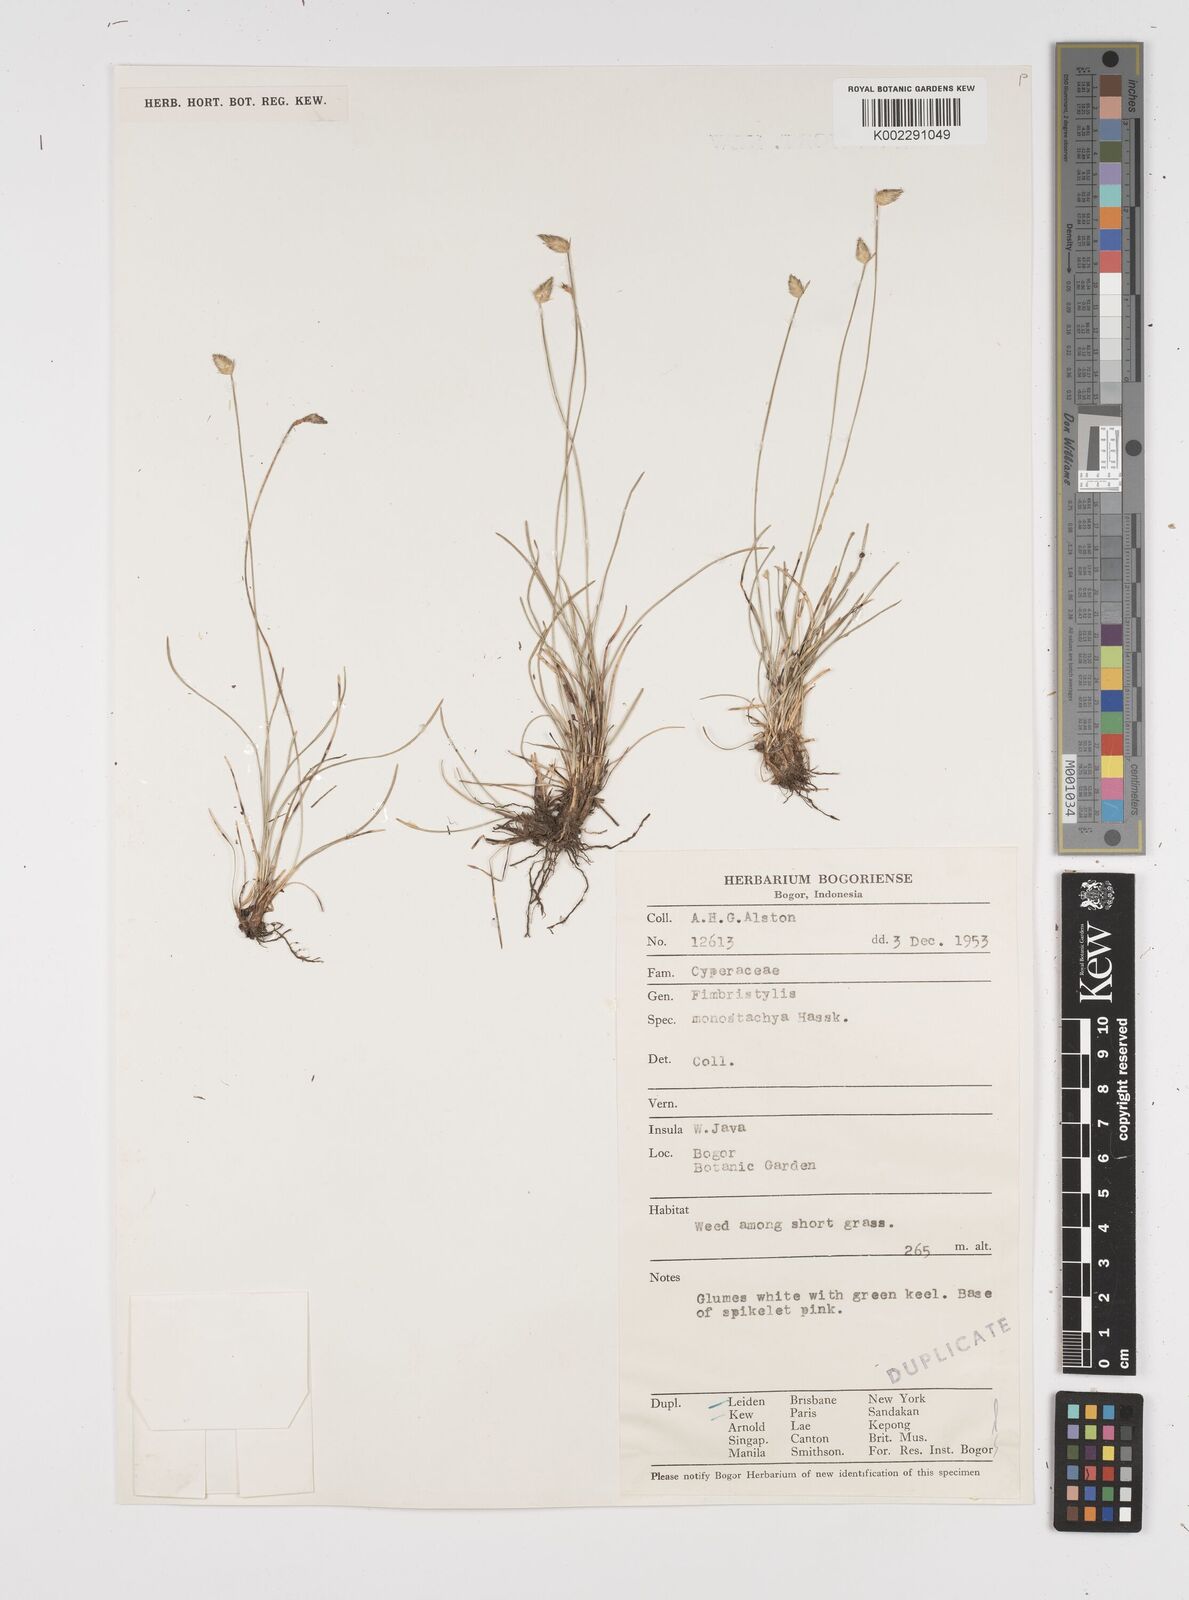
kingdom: Plantae
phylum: Tracheophyta
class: Liliopsida
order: Poales
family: Cyperaceae
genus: Abildgaardia
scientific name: Abildgaardia ovata
